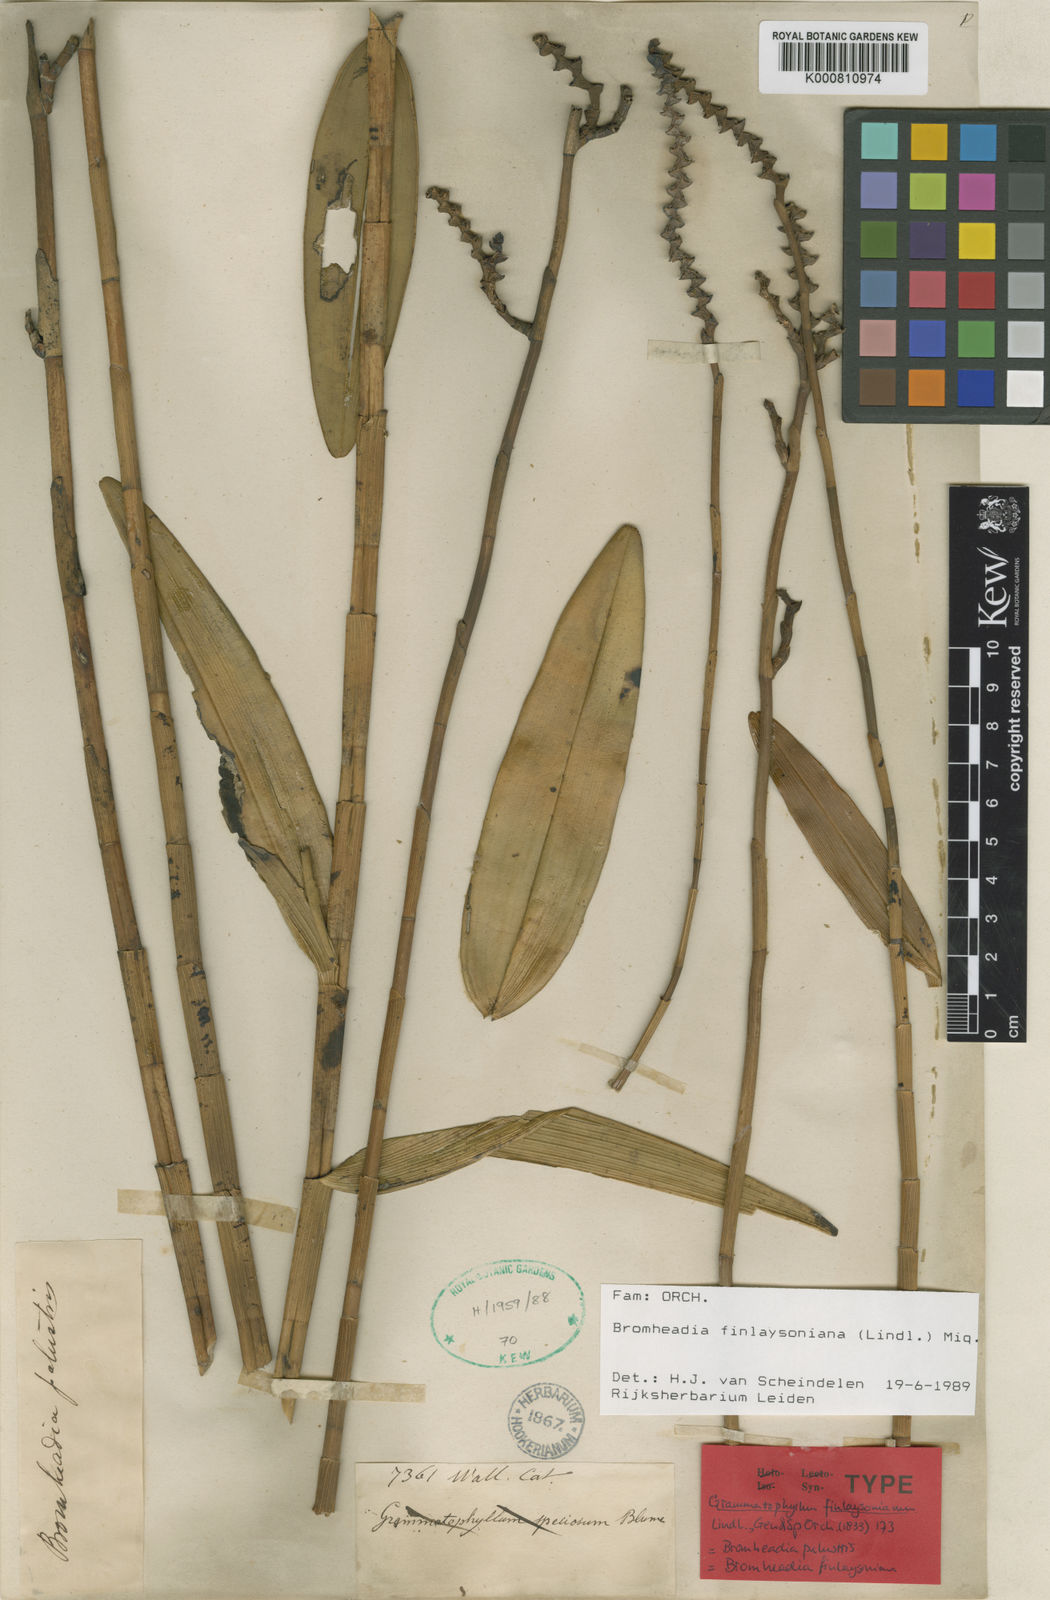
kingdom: Plantae
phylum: Tracheophyta
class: Liliopsida
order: Asparagales
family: Orchidaceae
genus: Bromheadia
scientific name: Bromheadia finlaysoniana
